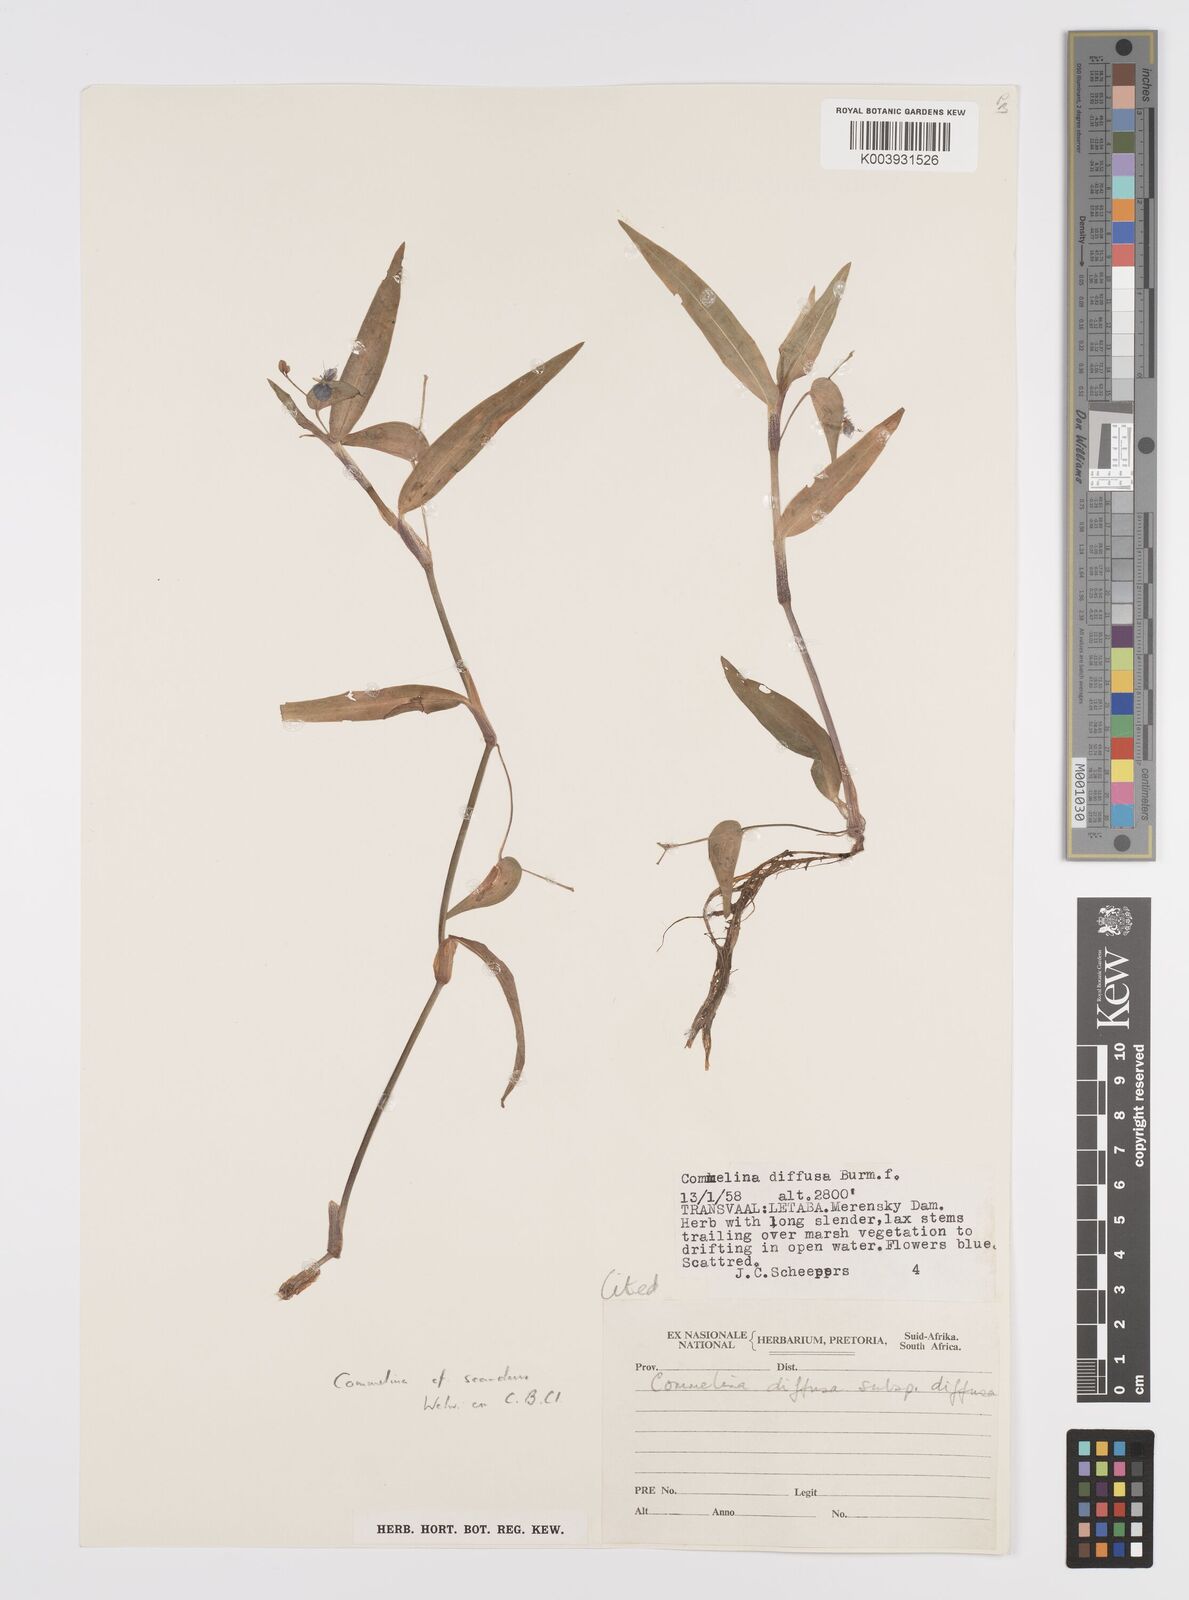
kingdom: Plantae
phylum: Tracheophyta
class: Liliopsida
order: Commelinales
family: Commelinaceae
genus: Commelina
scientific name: Commelina diffusa
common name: Climbing dayflower
